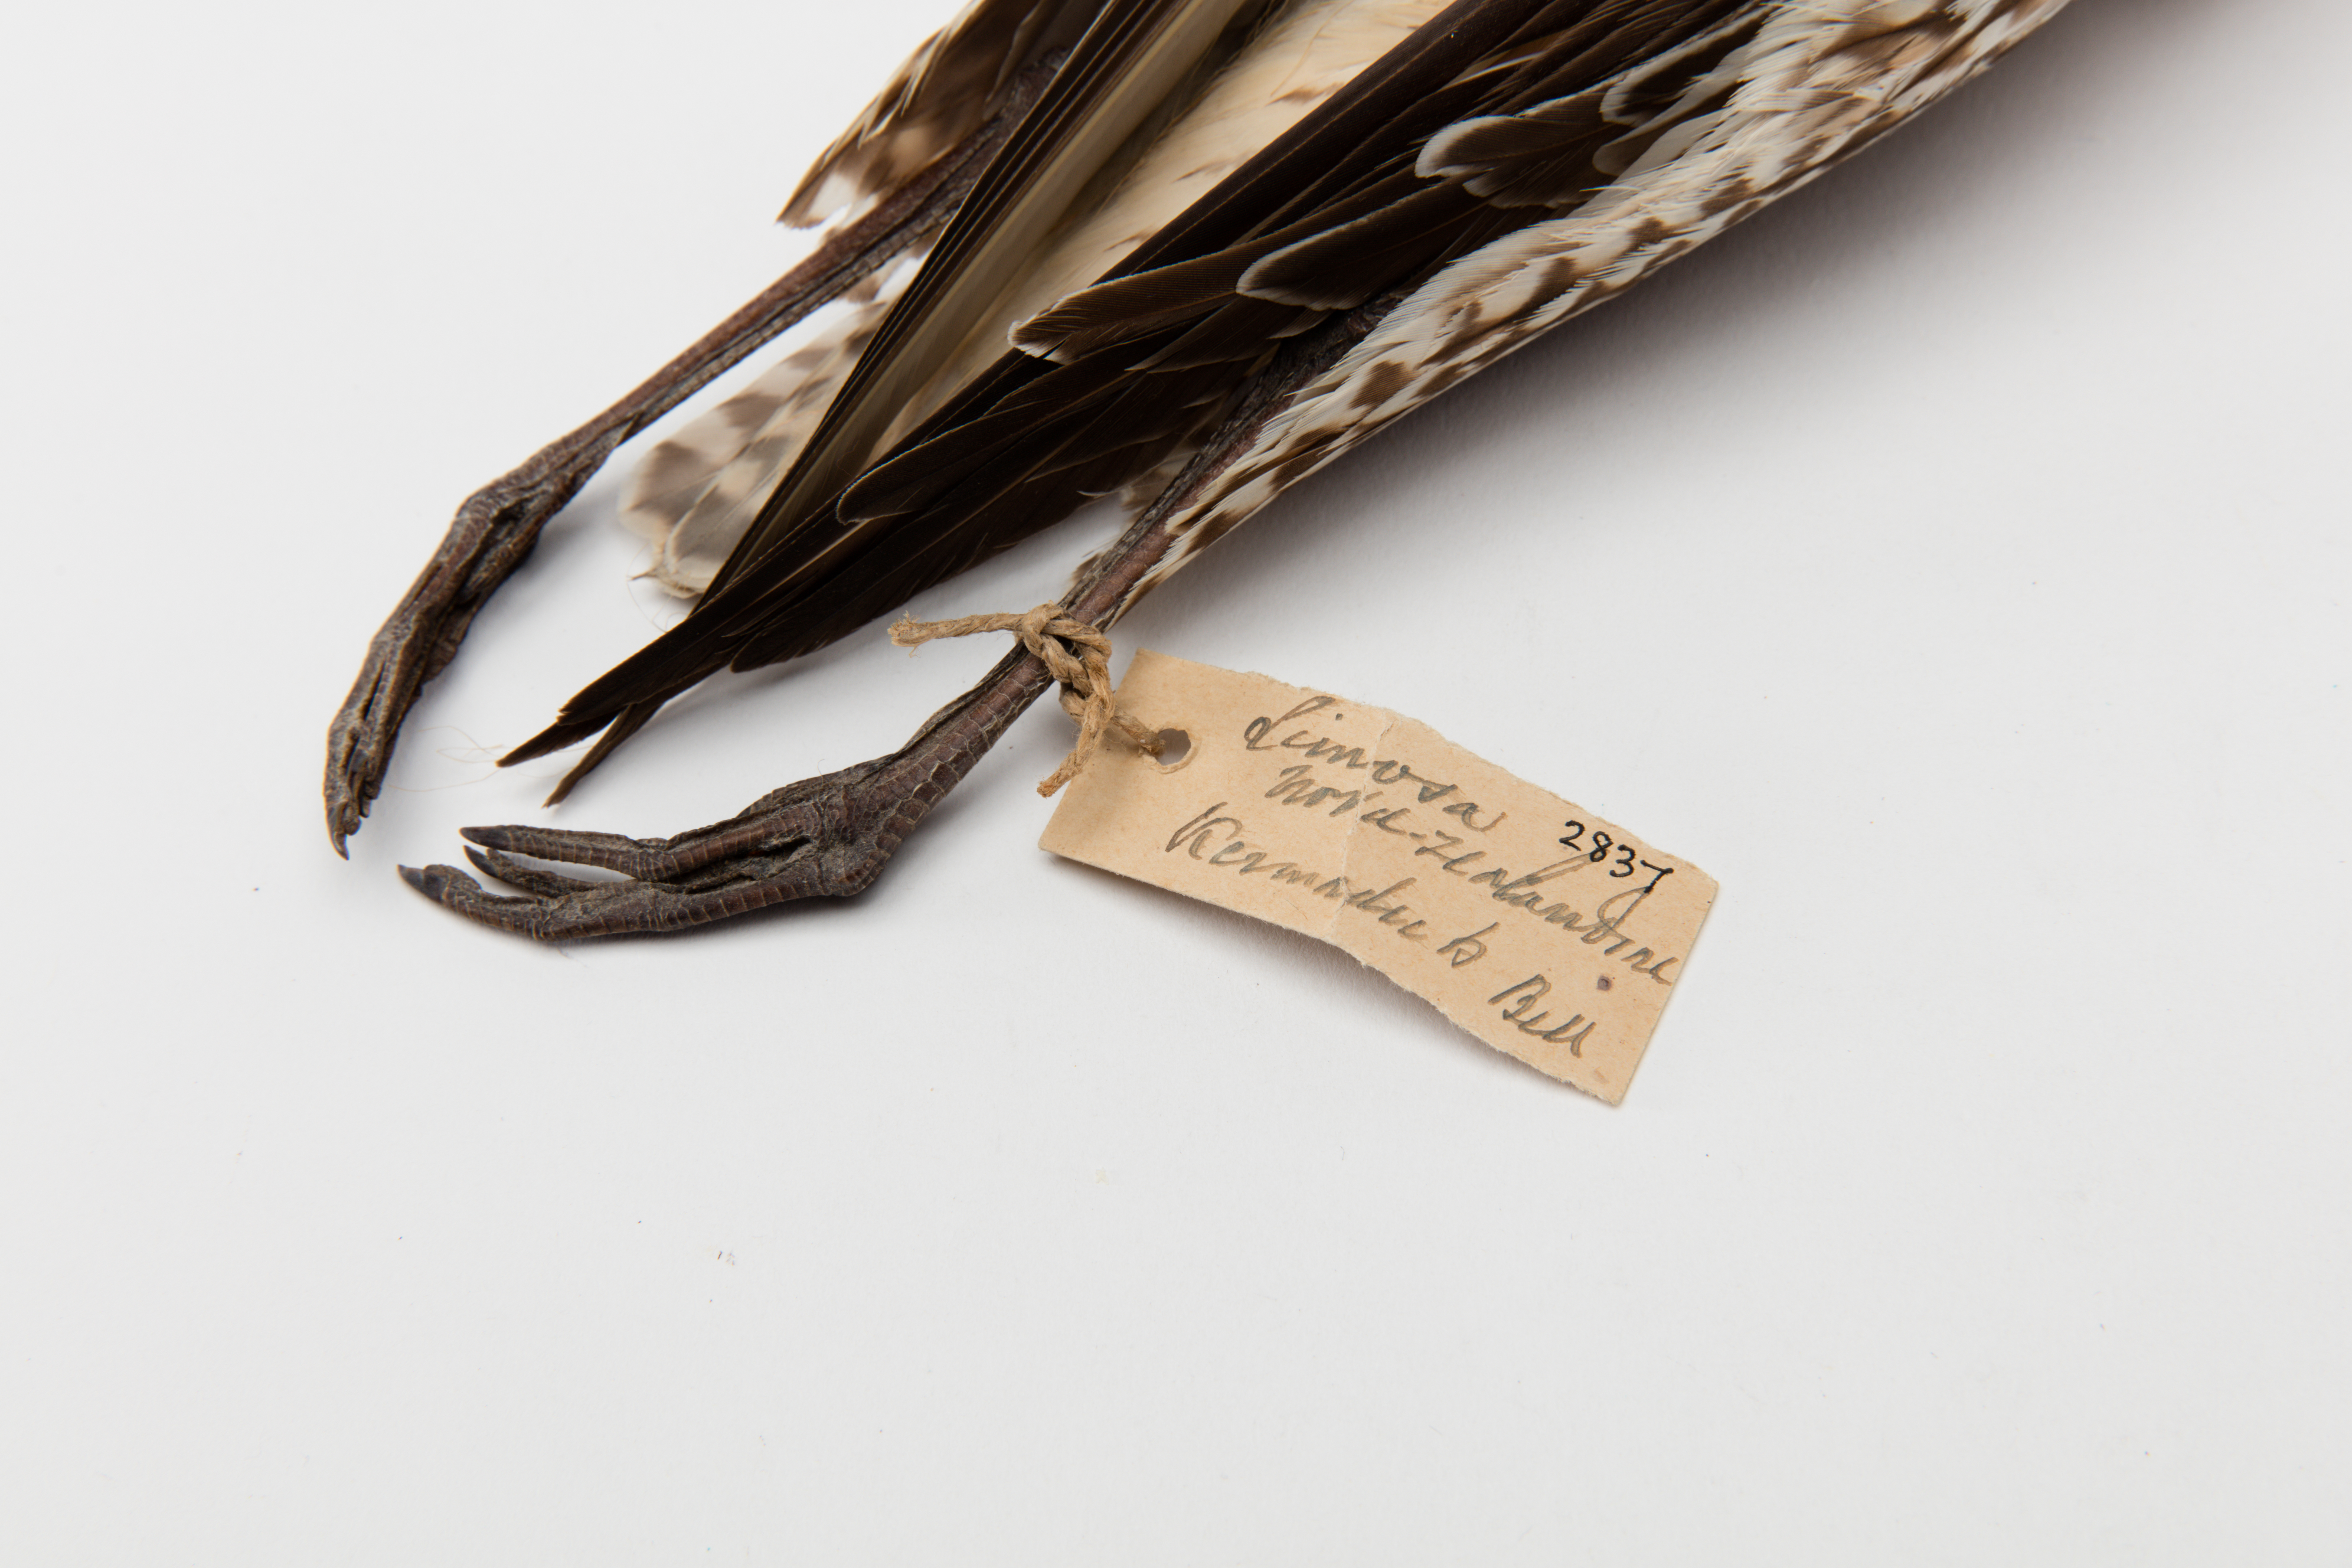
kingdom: Animalia
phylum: Chordata
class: Aves
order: Charadriiformes
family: Scolopacidae
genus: Limosa
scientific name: Limosa lapponica
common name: Bar-tailed godwit
